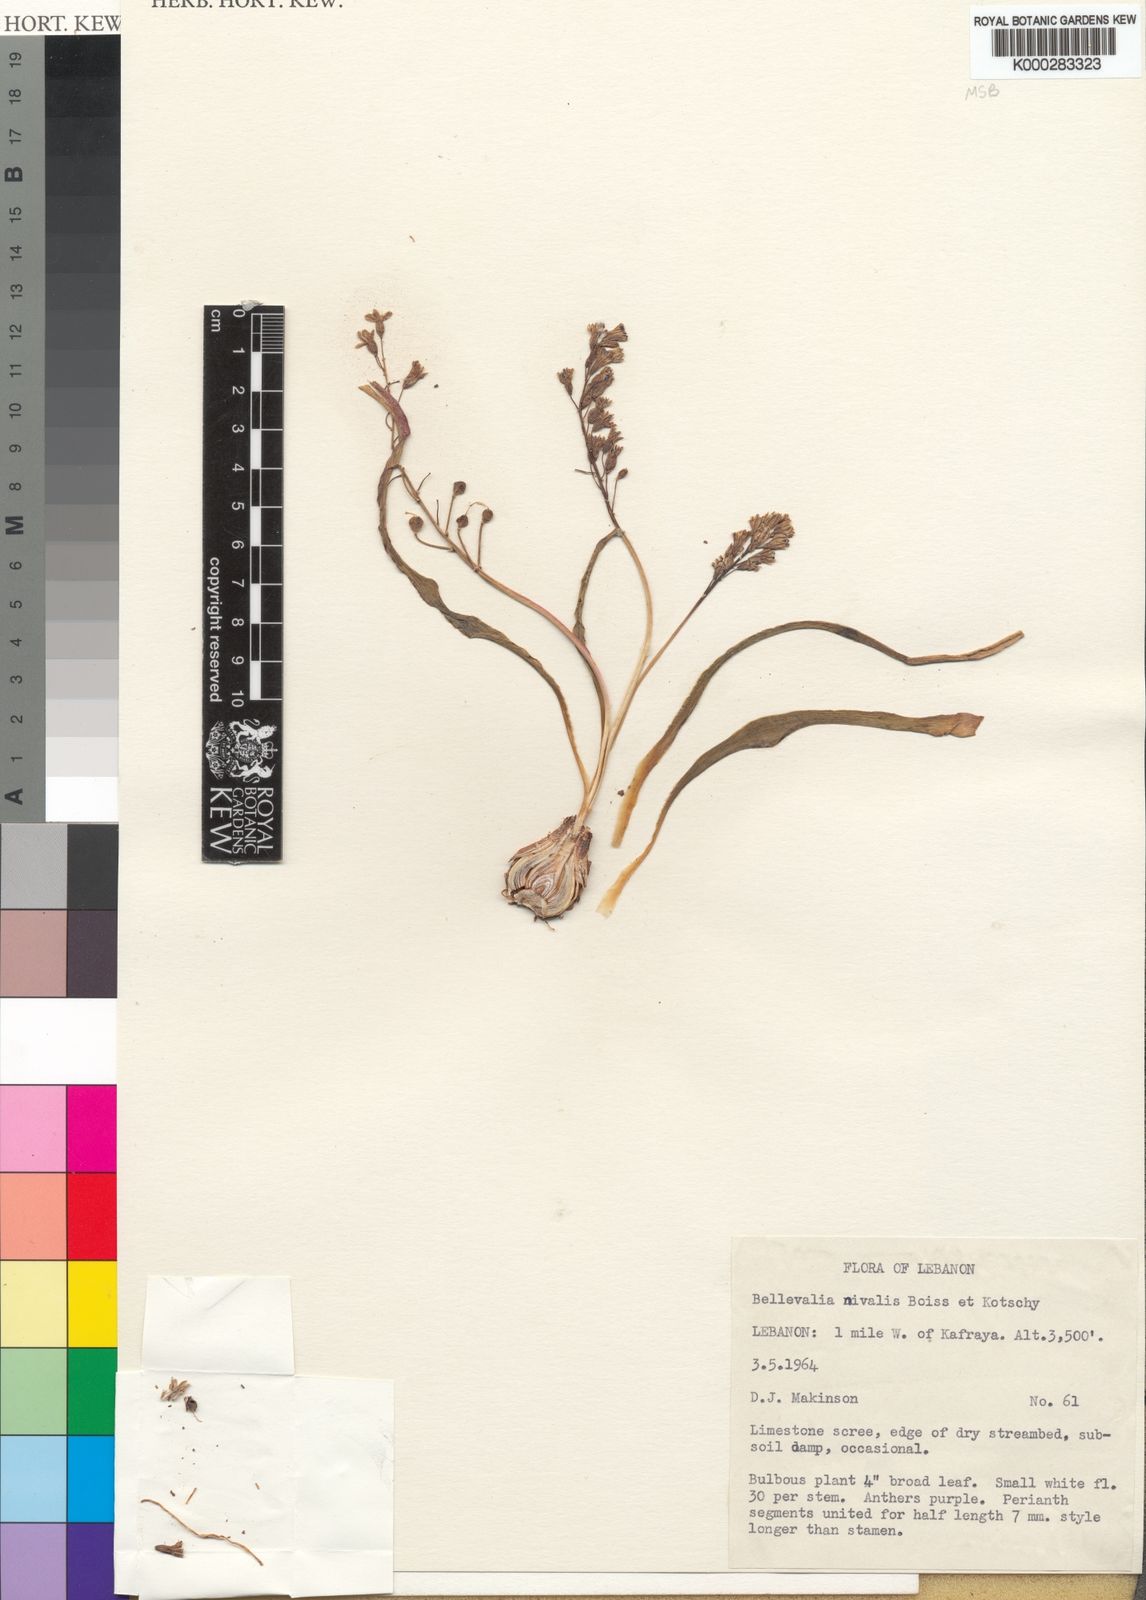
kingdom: Plantae
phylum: Tracheophyta
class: Liliopsida
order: Asparagales
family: Asparagaceae
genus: Bellevalia
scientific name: Bellevalia nivalis
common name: Snow bellevalia
